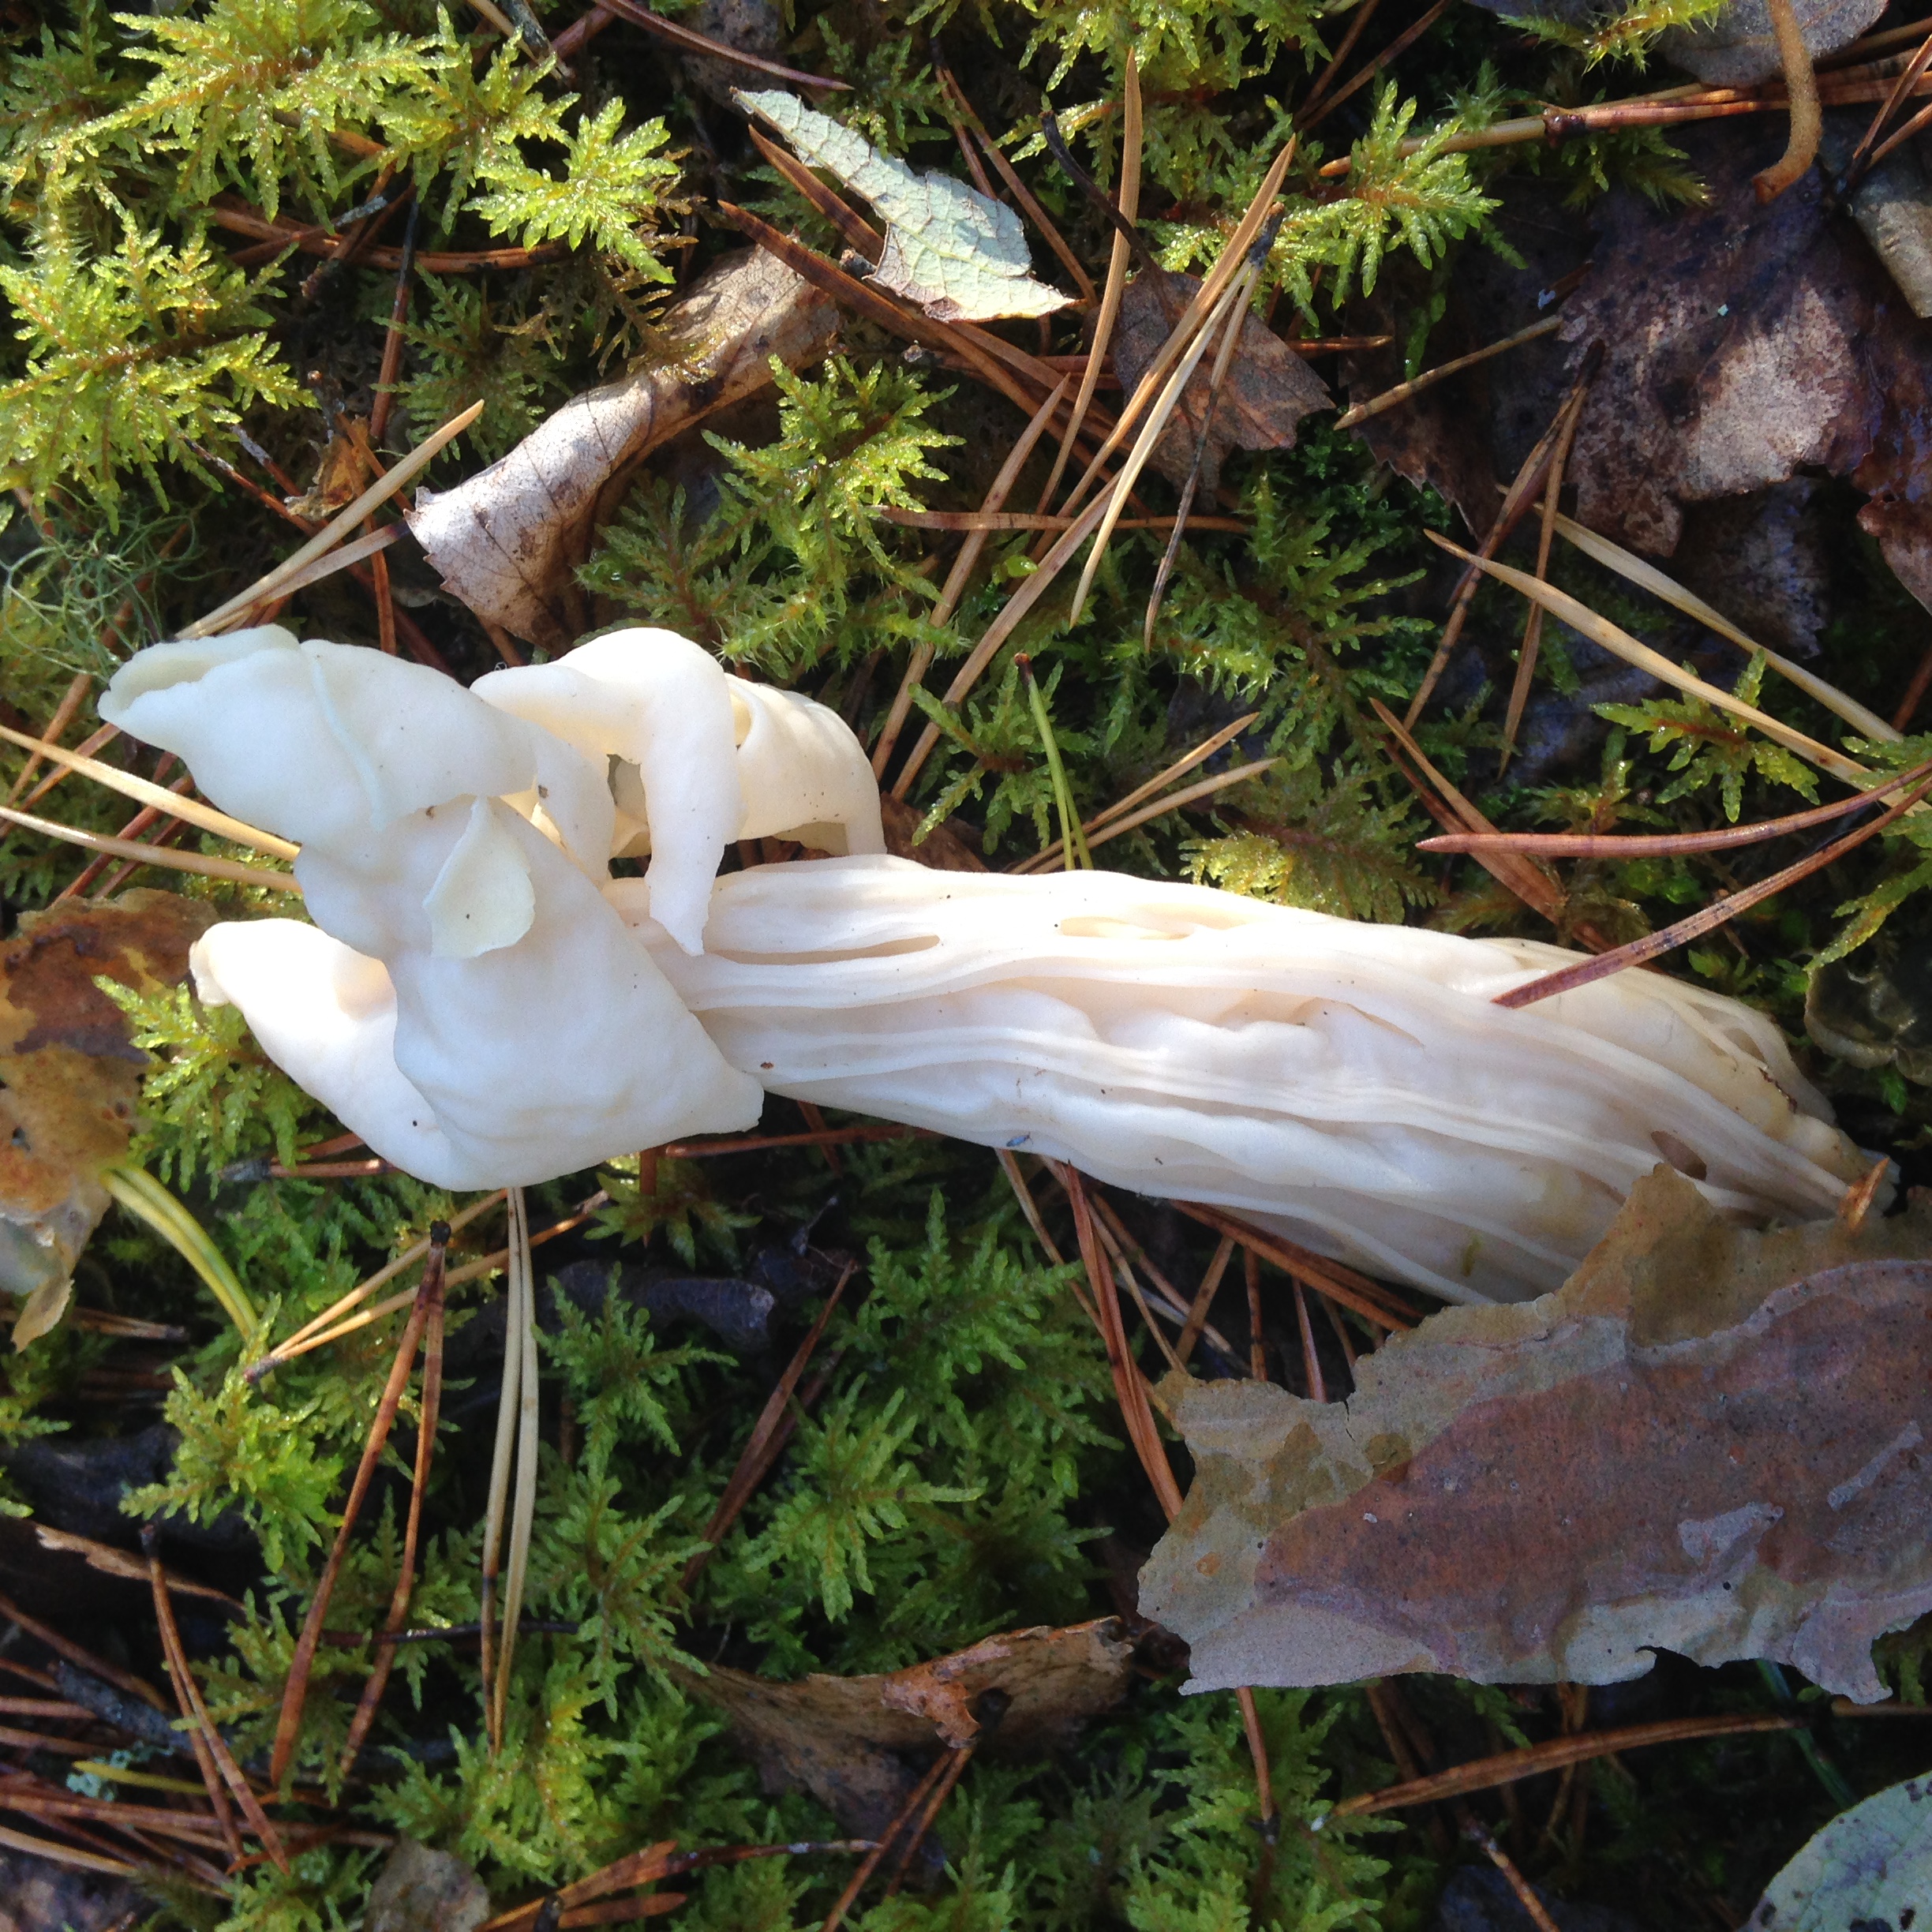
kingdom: Fungi
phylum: Ascomycota
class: Pezizomycetes
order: Pezizales
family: Helvellaceae
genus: Helvella
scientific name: Helvella crispa
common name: White saddle
